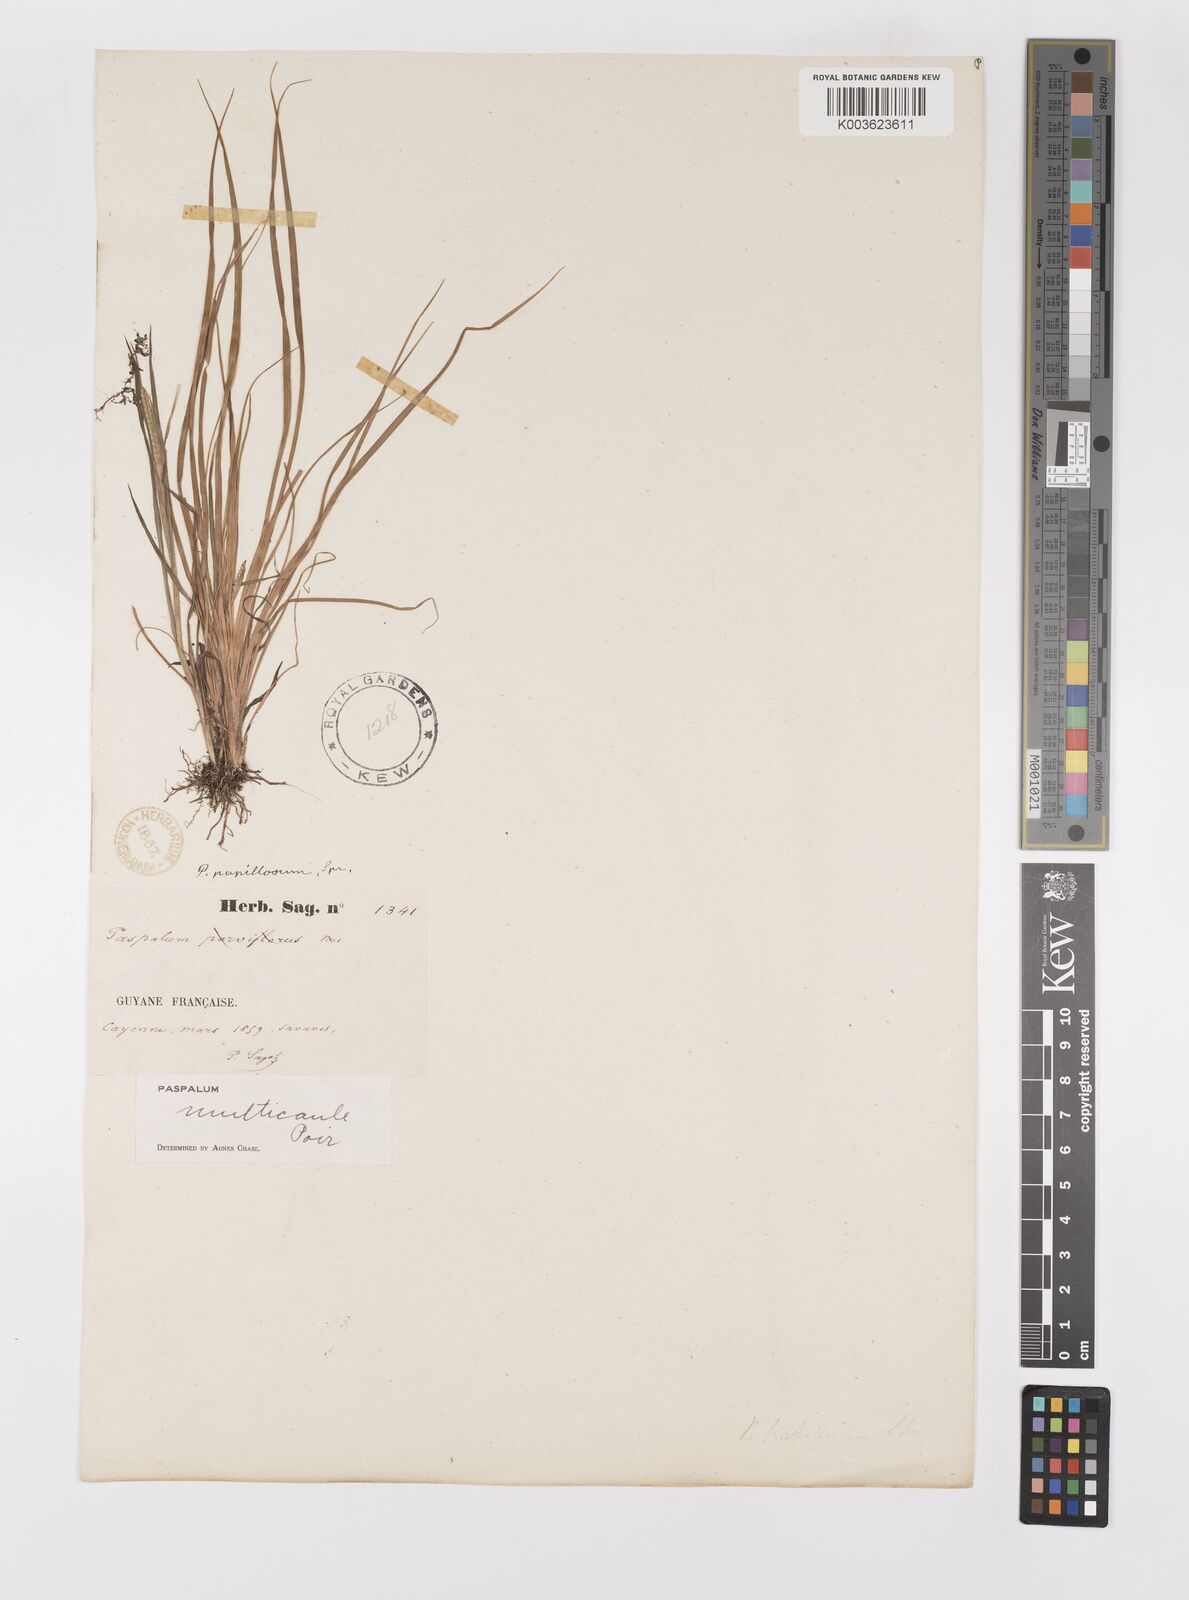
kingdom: Plantae
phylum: Tracheophyta
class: Liliopsida
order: Poales
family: Poaceae
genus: Paspalum
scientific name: Paspalum multicaule
